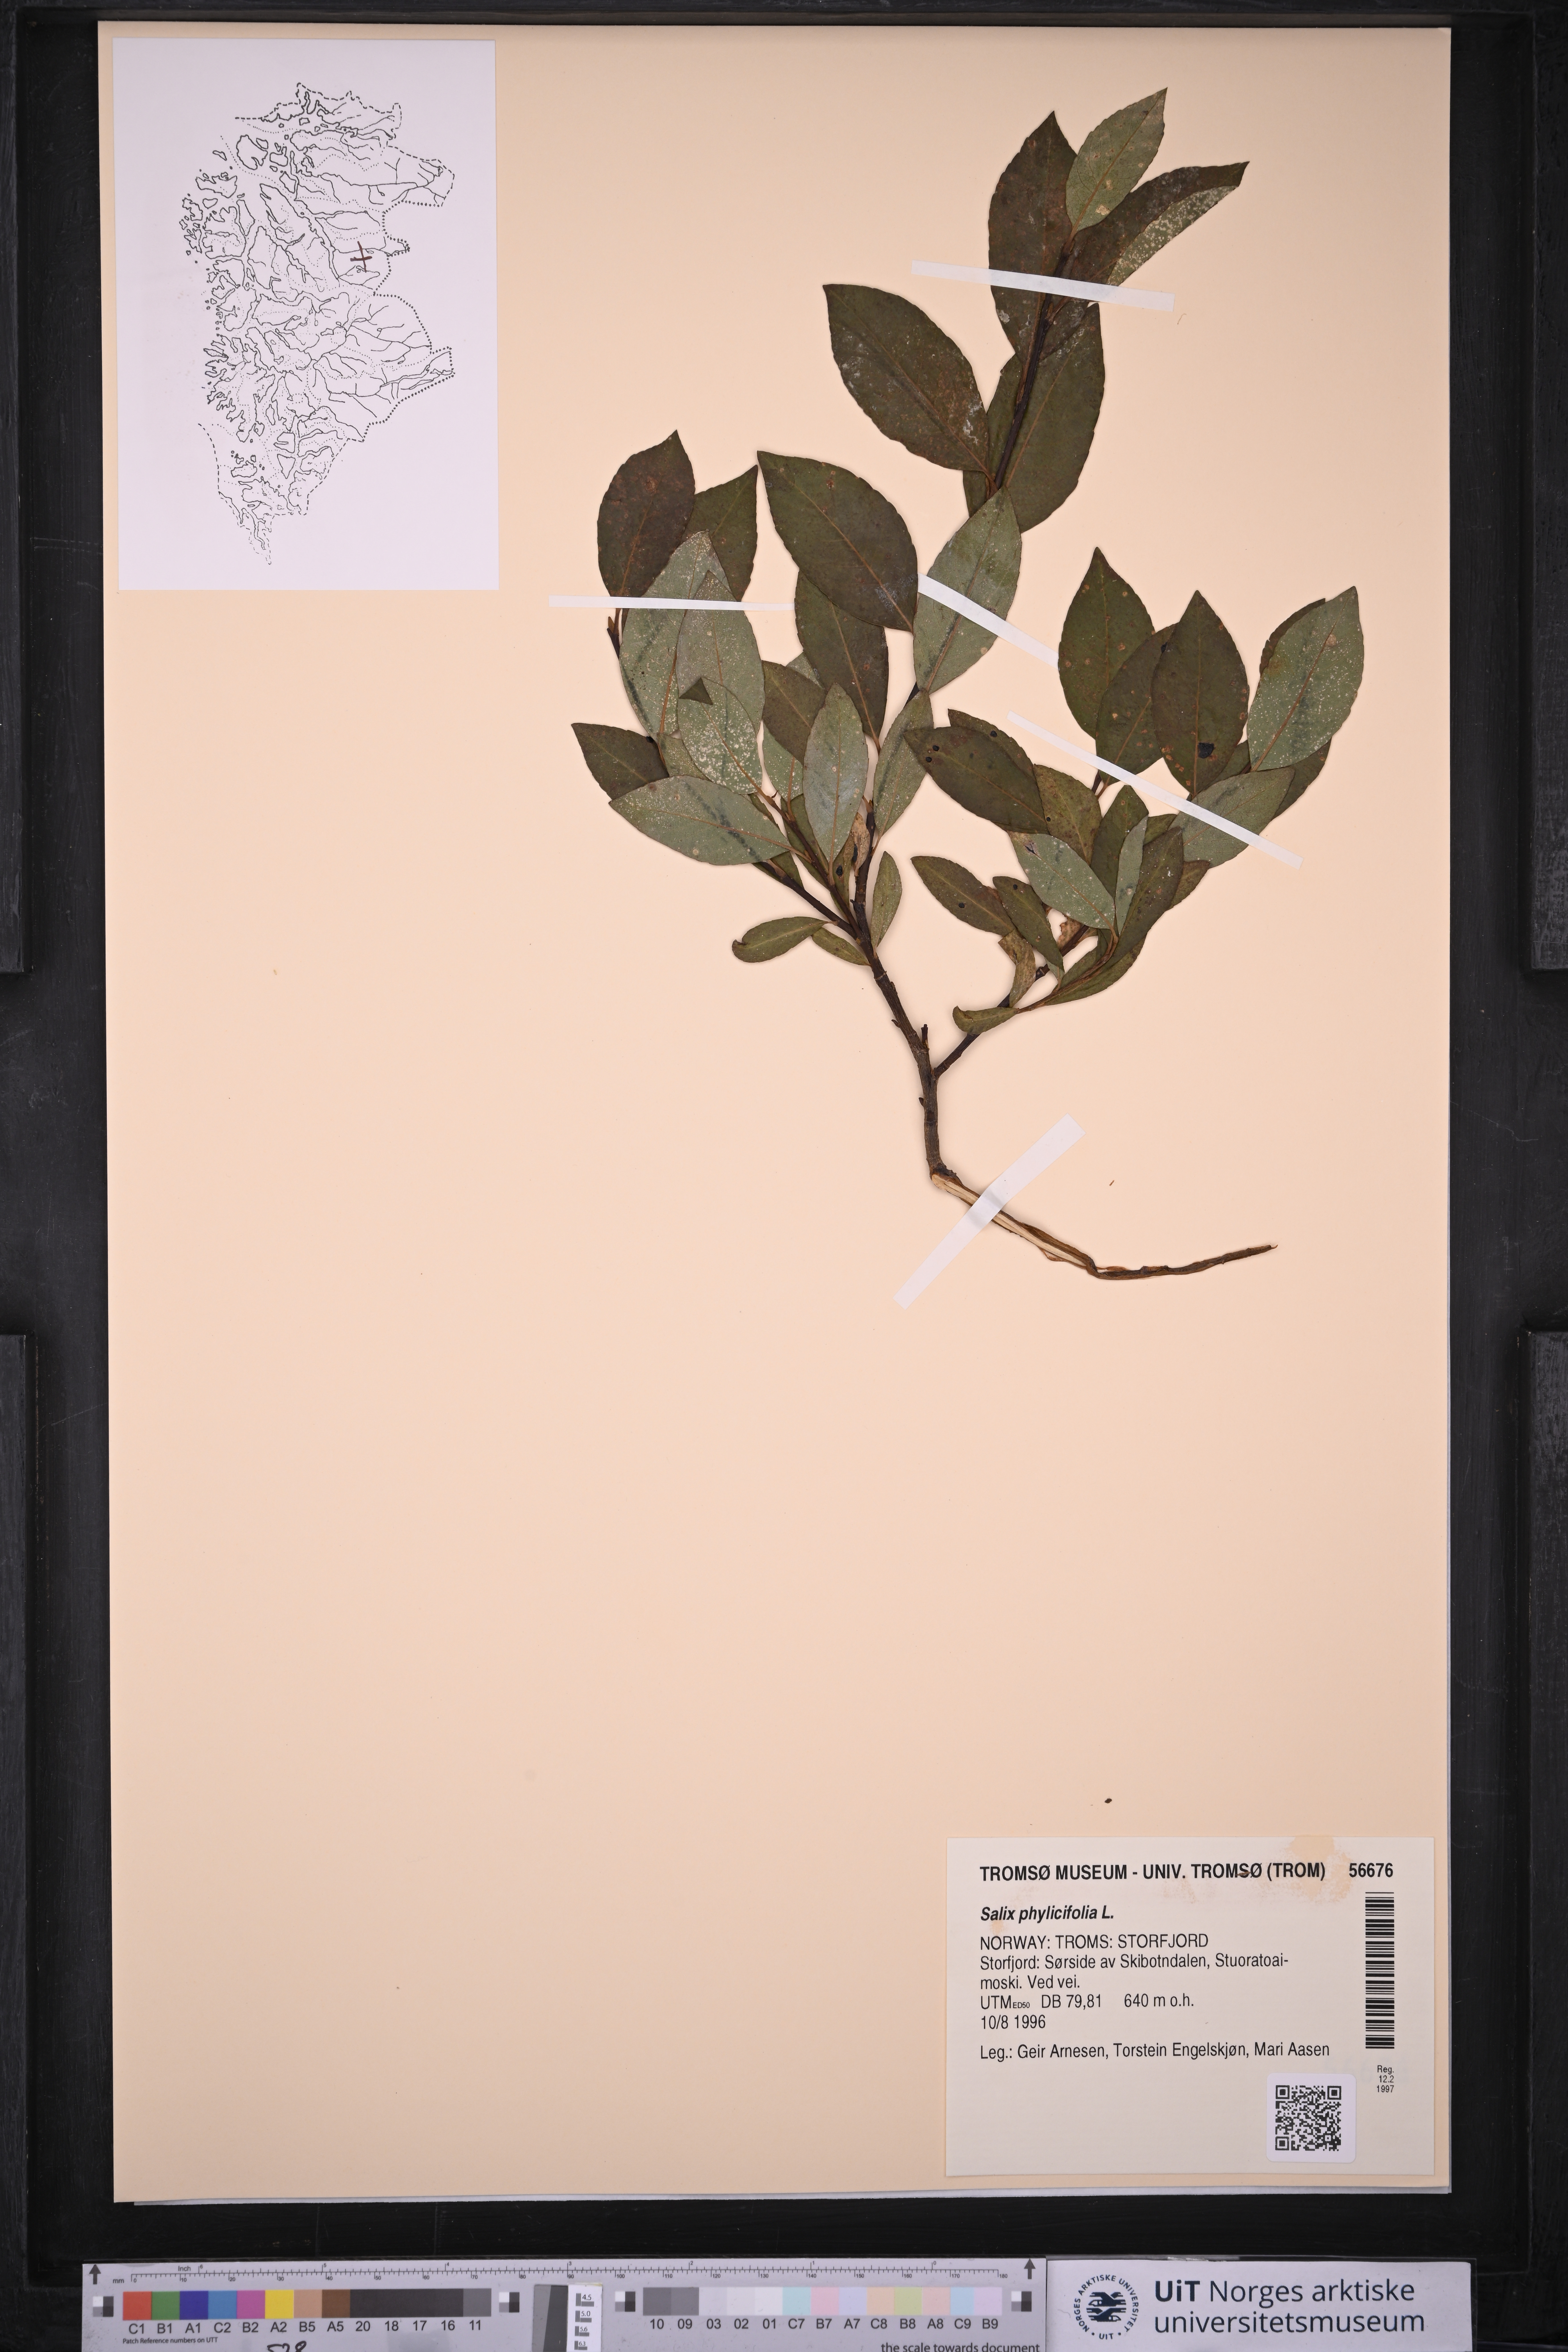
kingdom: Plantae
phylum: Tracheophyta
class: Magnoliopsida
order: Malpighiales
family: Salicaceae
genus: Salix
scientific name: Salix phylicifolia
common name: Tea-leaved willow
